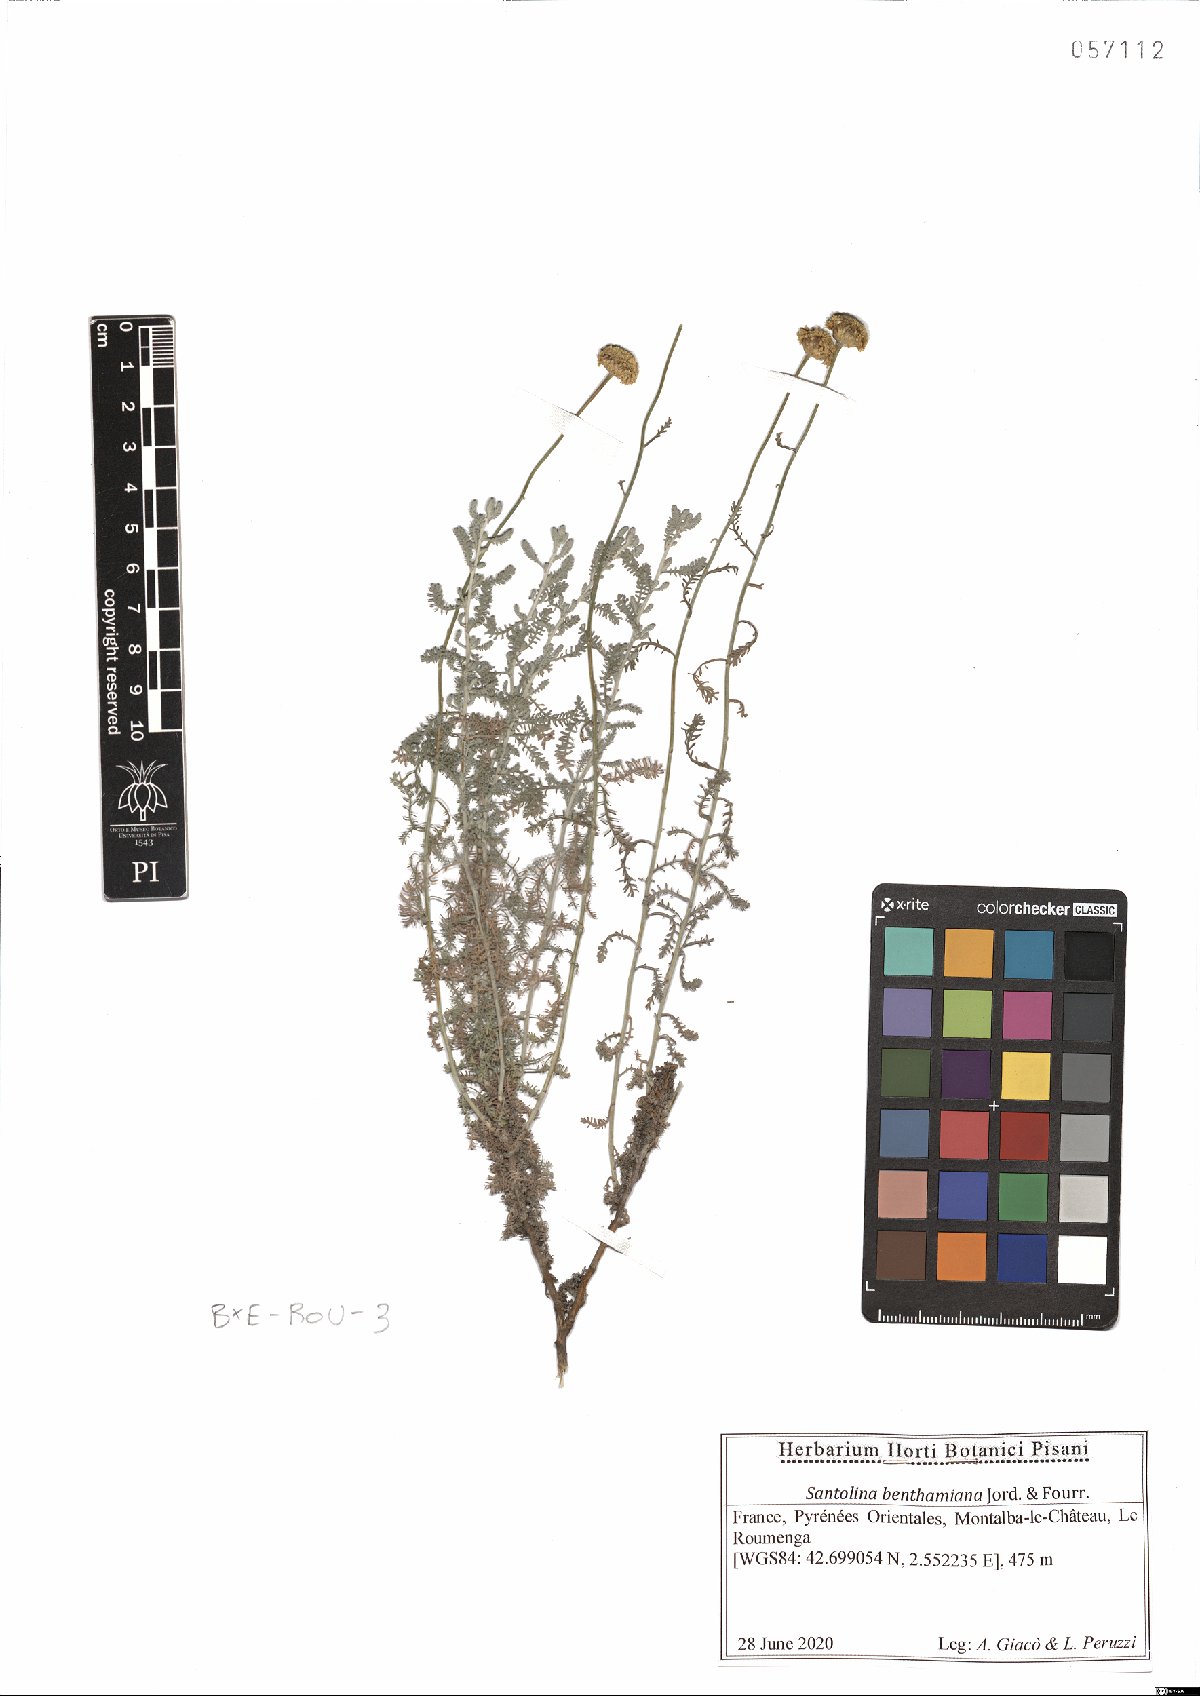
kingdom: Plantae
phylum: Tracheophyta
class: Magnoliopsida
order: Asterales
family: Asteraceae
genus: Santolina
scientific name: Santolina benthamiana
